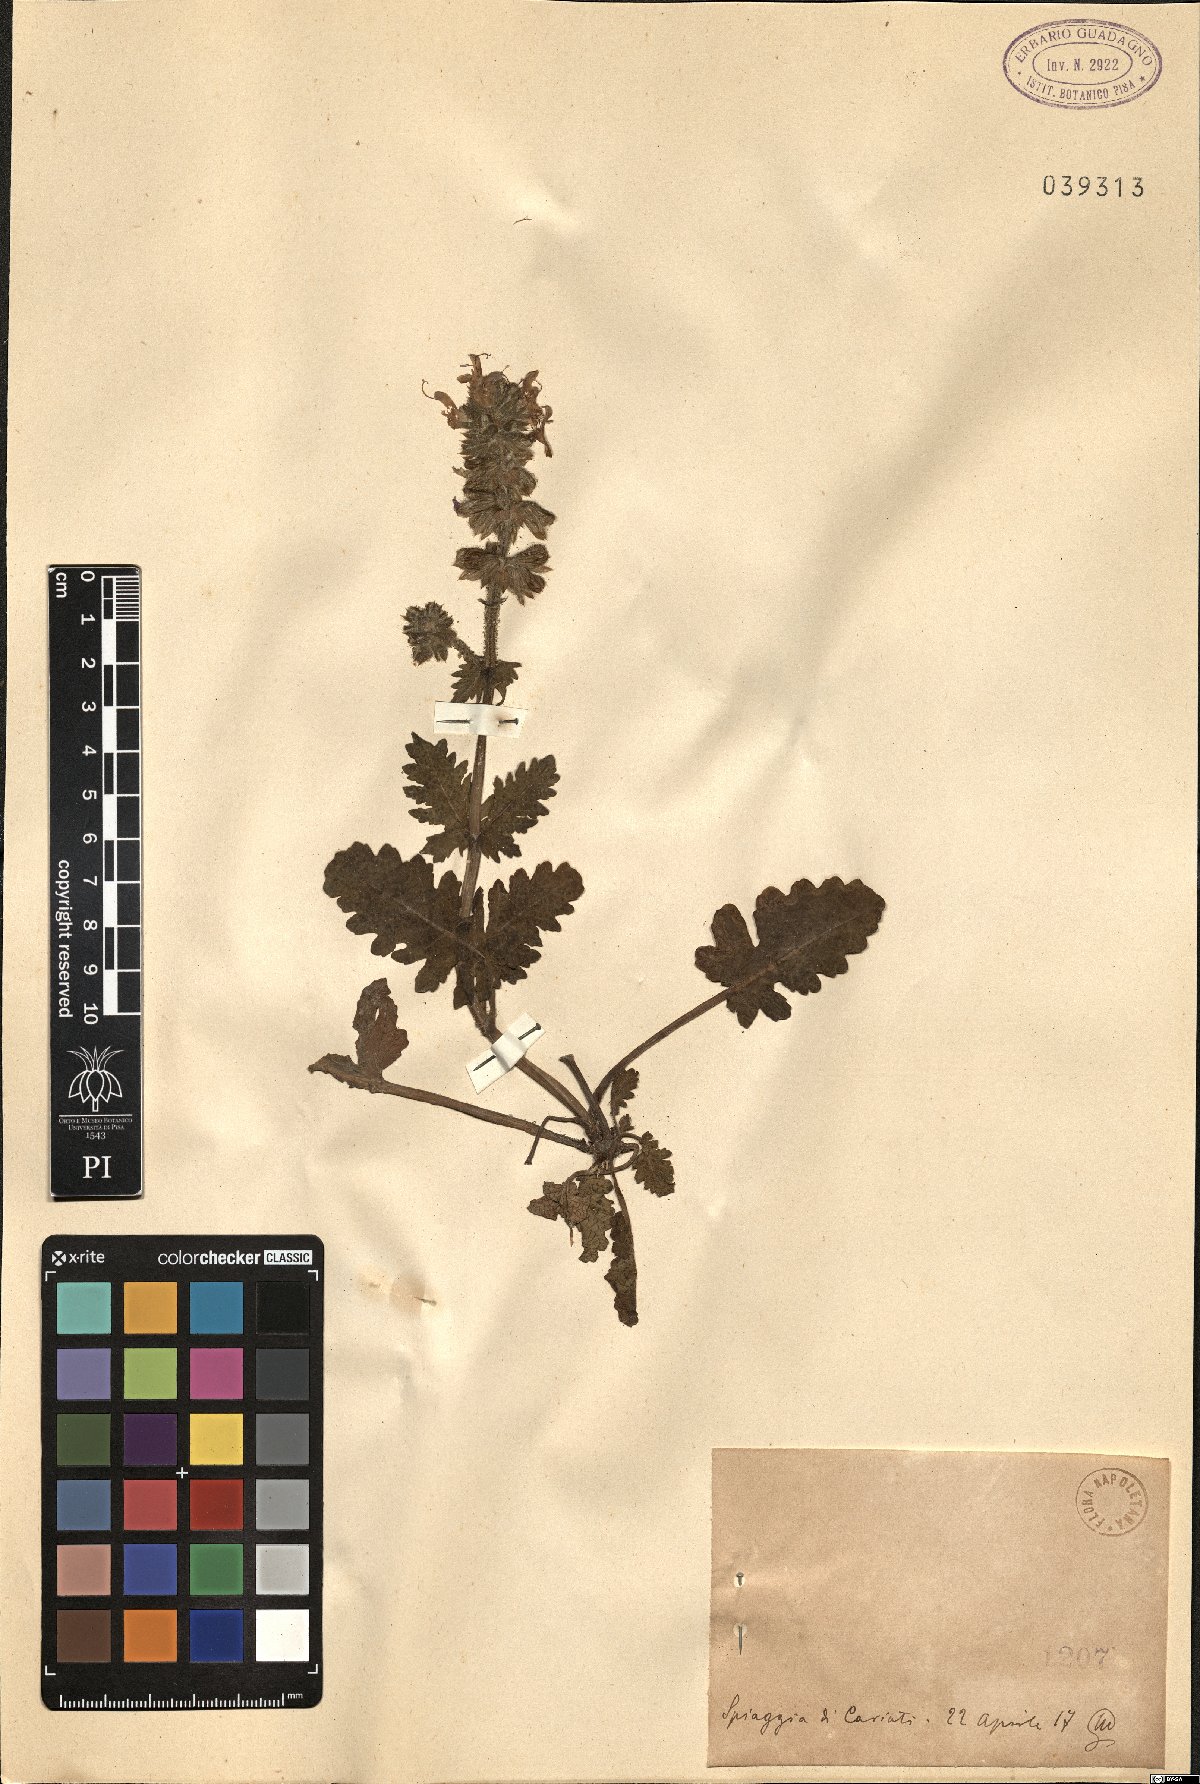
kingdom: Plantae
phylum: Tracheophyta
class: Magnoliopsida
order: Lamiales
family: Lamiaceae
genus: Salvia
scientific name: Salvia
